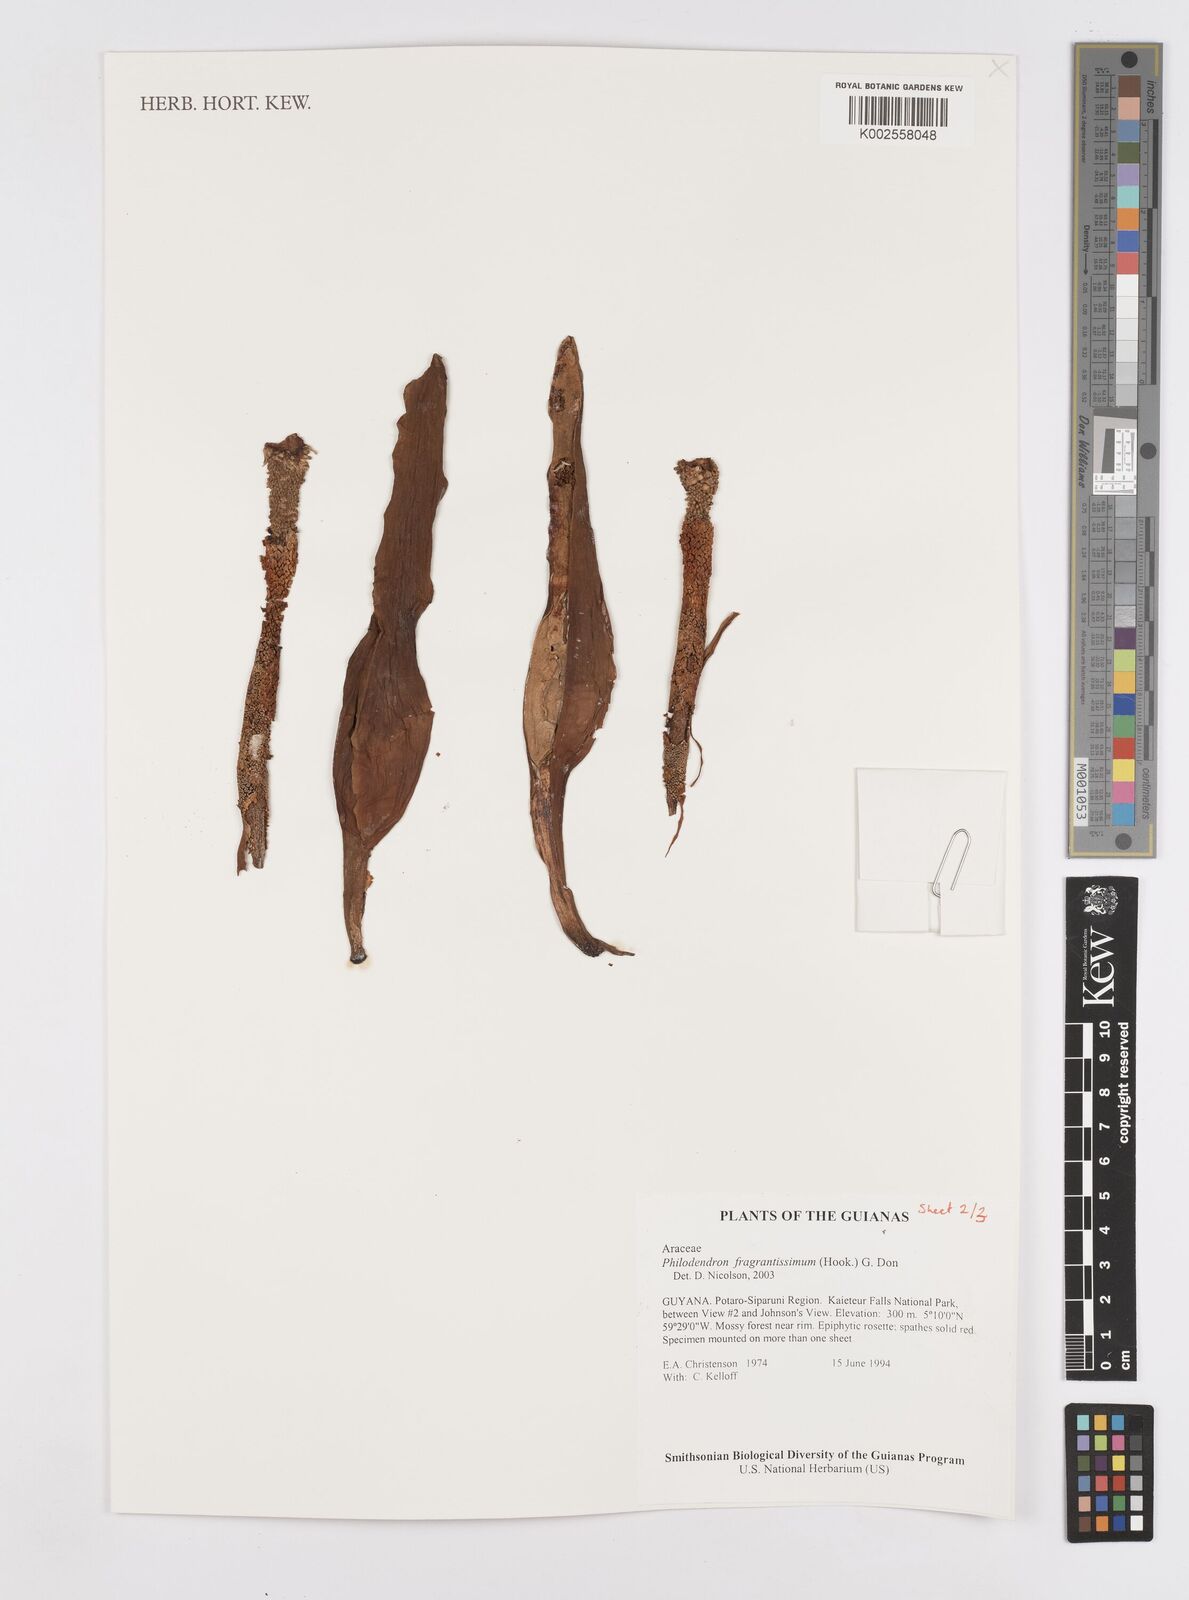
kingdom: Plantae
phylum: Tracheophyta
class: Liliopsida
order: Alismatales
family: Araceae
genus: Philodendron
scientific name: Philodendron fragrantissimum
